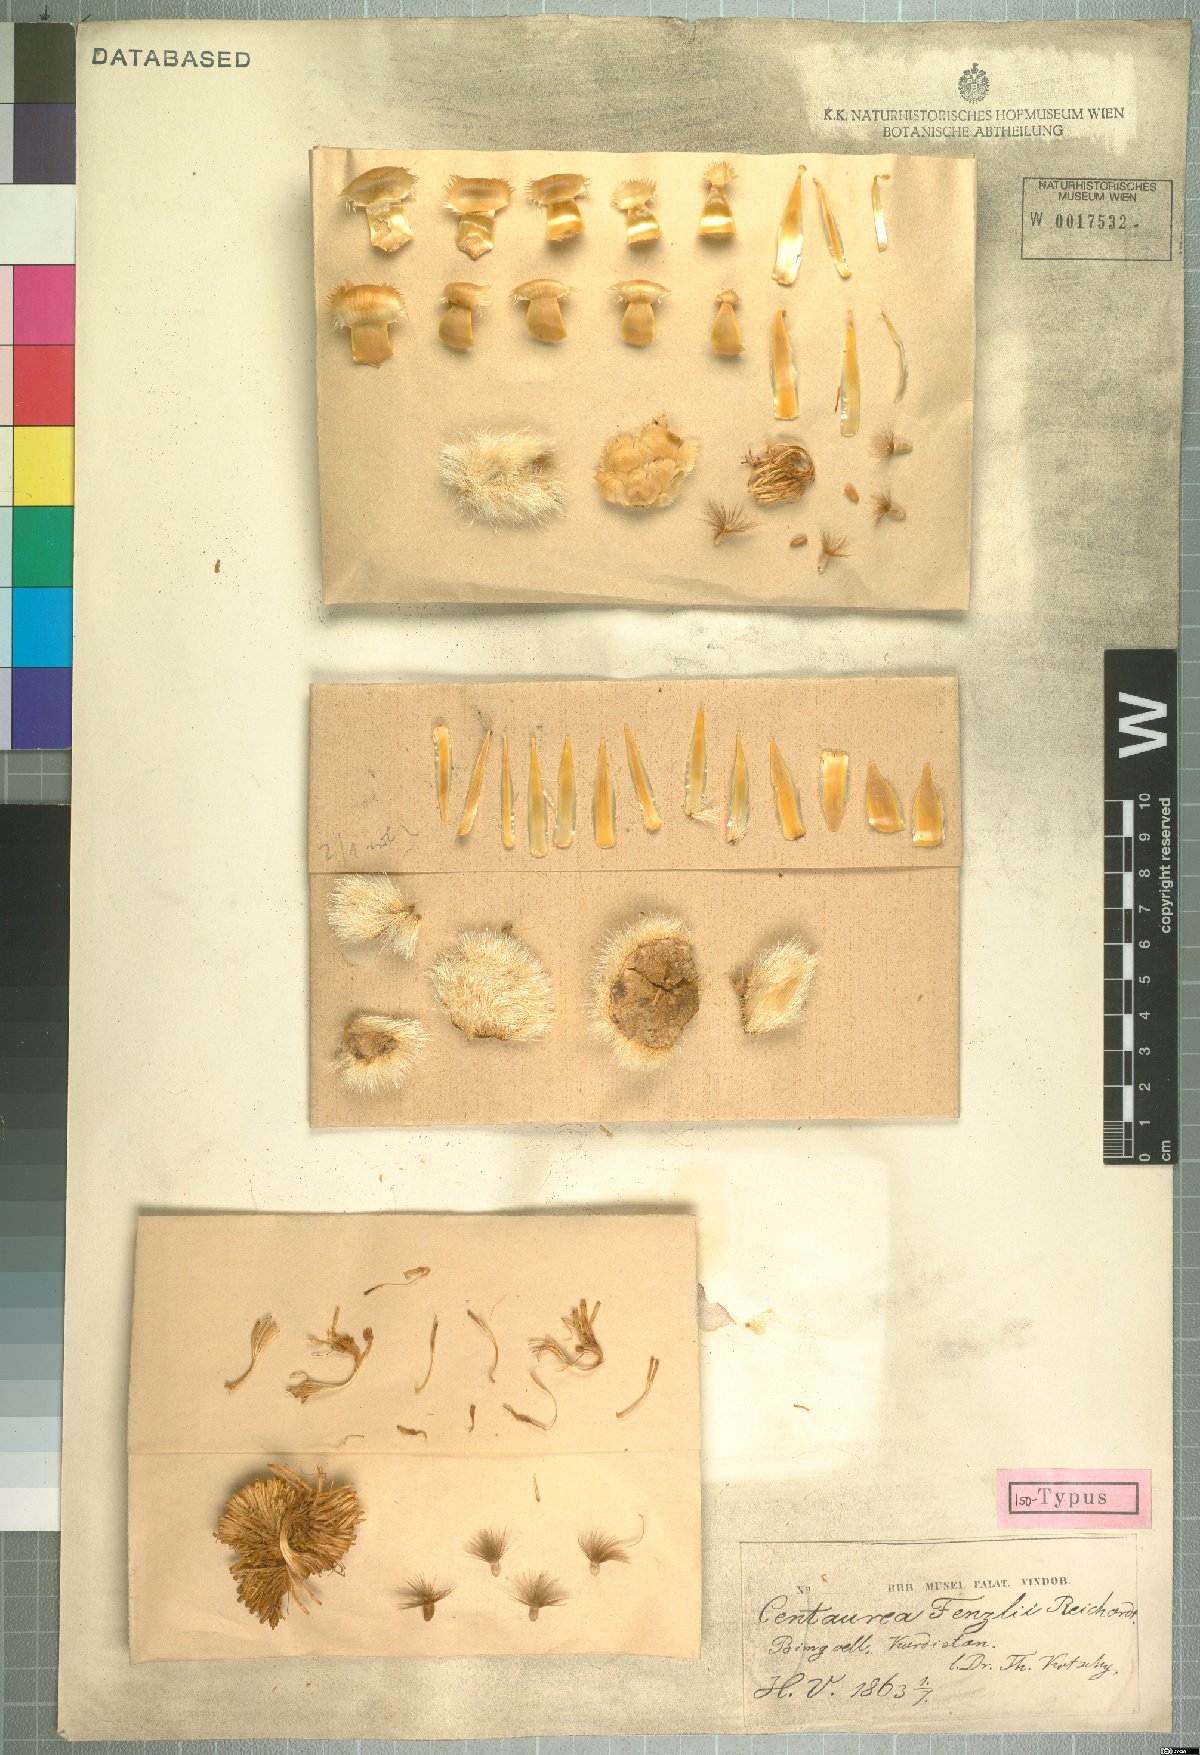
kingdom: Plantae
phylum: Tracheophyta
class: Magnoliopsida
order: Asterales
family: Asteraceae
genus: Centaurea
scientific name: Centaurea fenzlii
